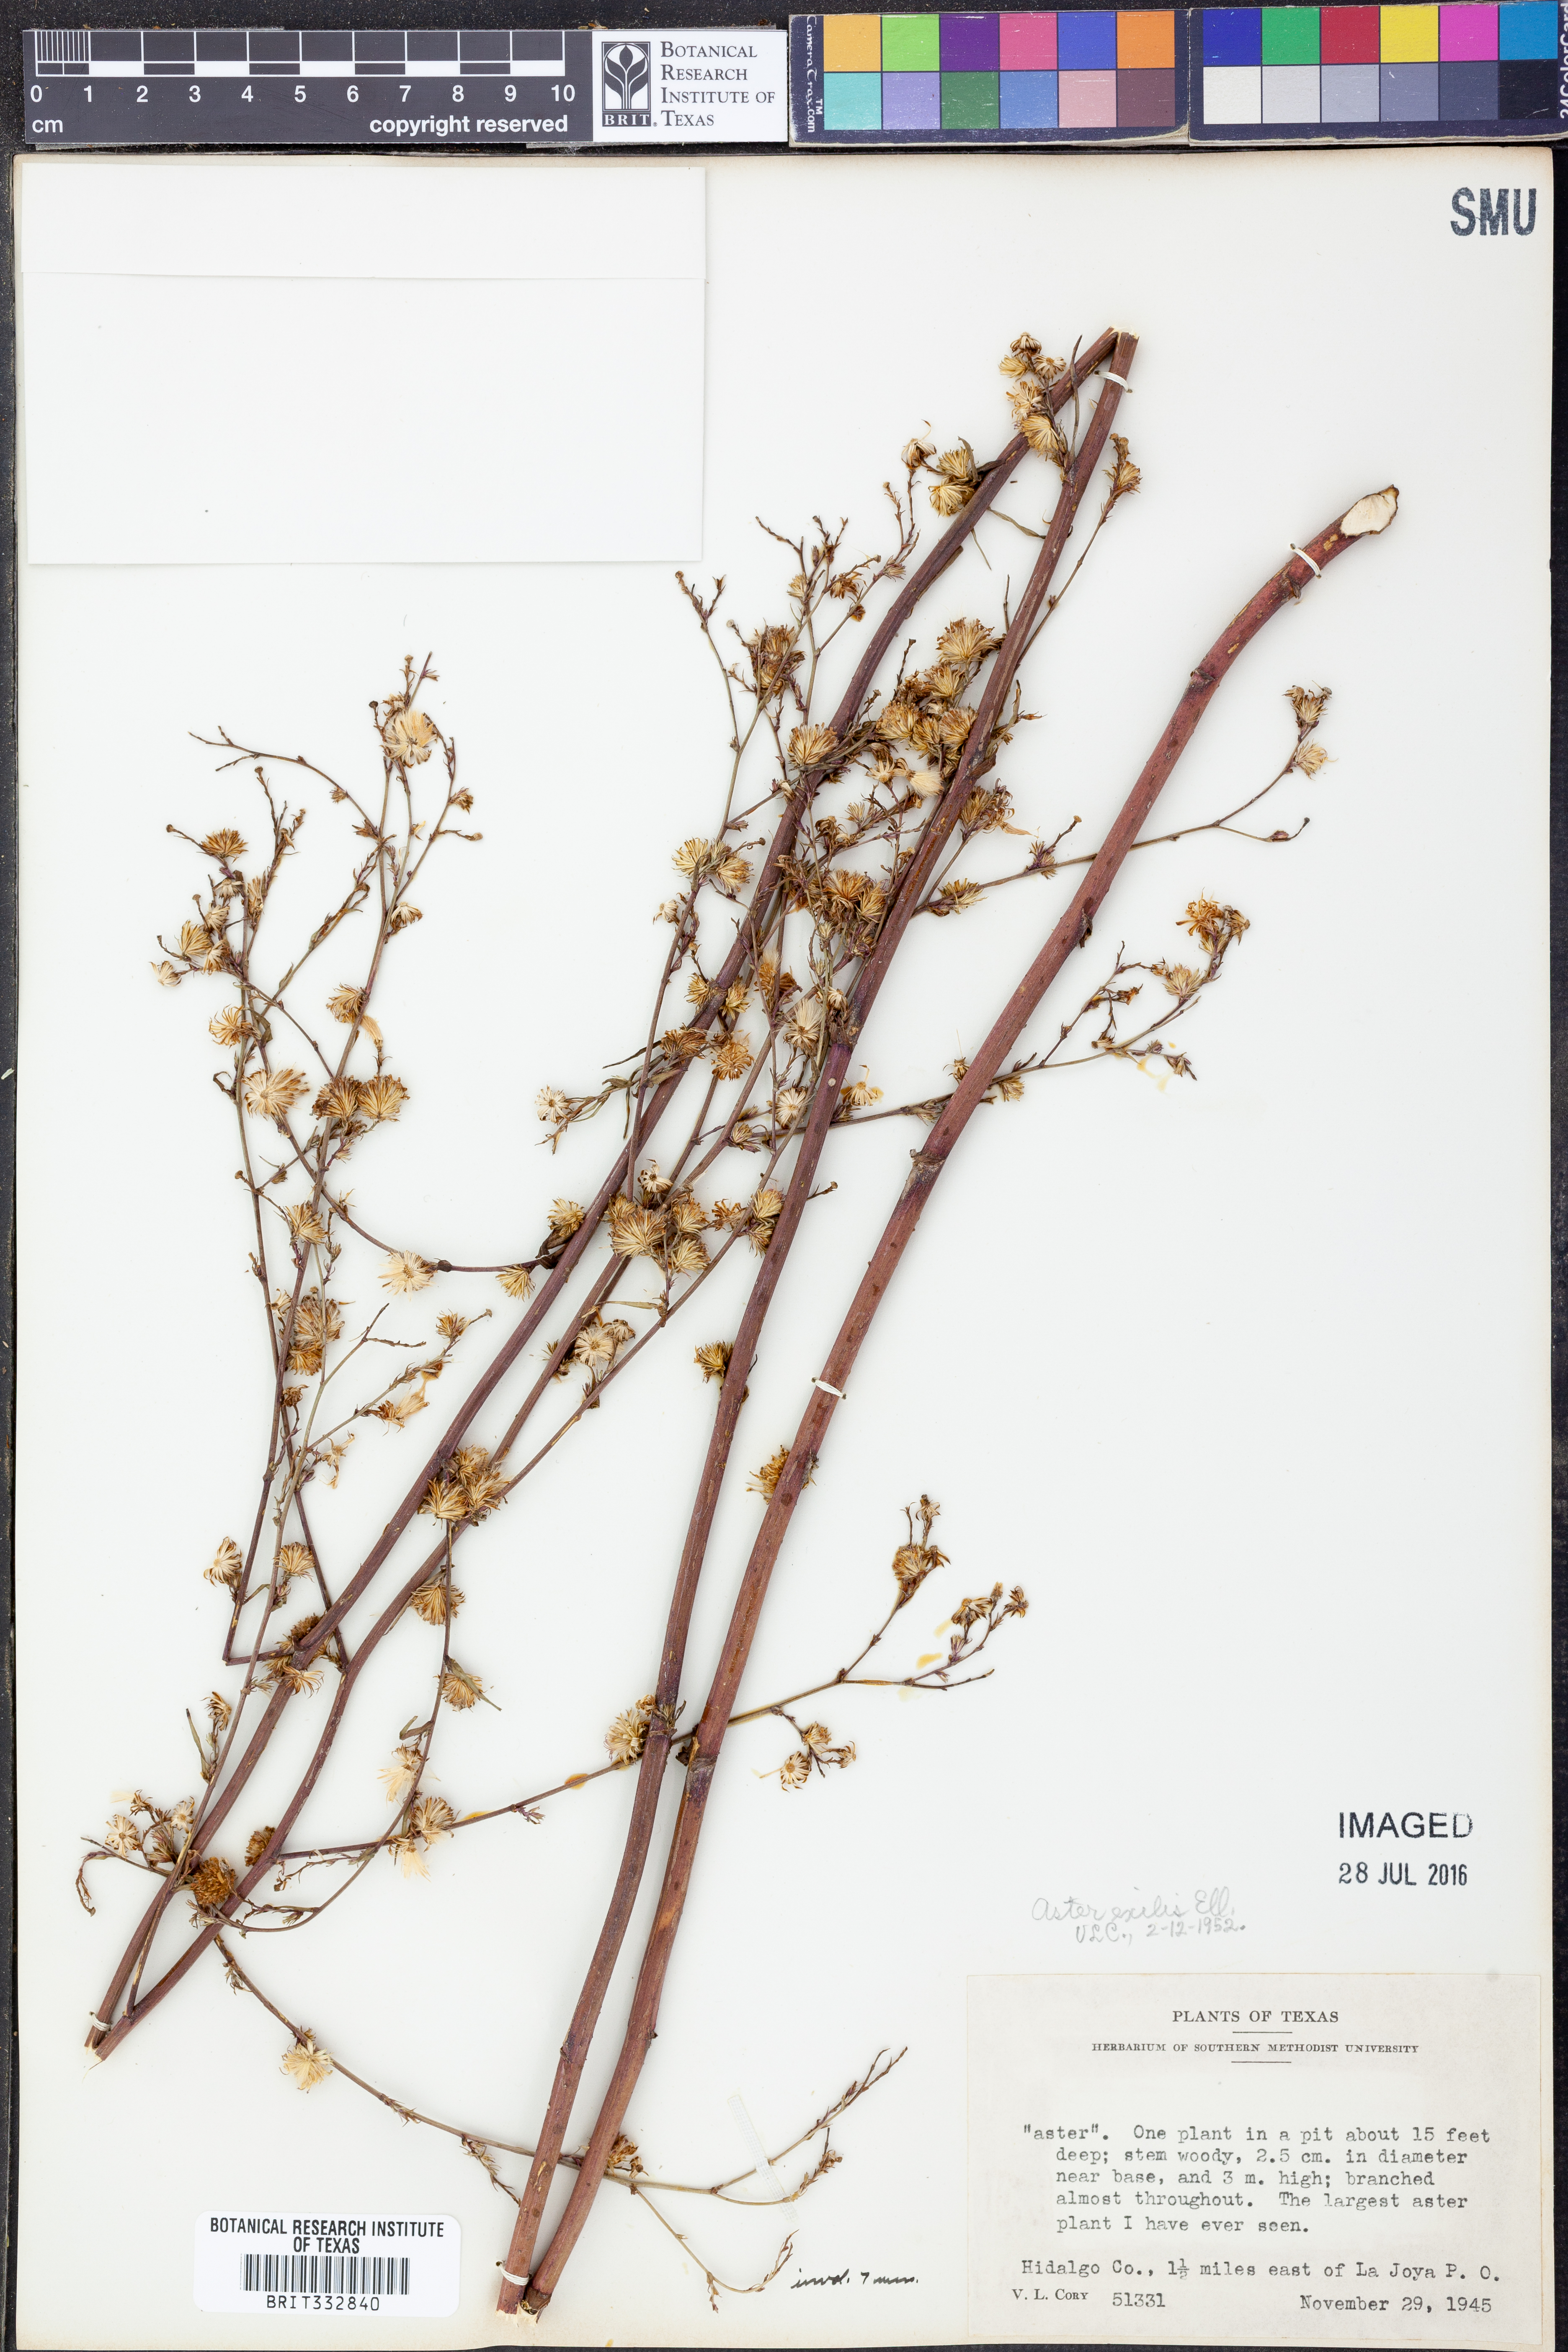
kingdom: Plantae
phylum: Tracheophyta
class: Magnoliopsida
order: Asterales
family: Asteraceae
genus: Symphyotrichum
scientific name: Symphyotrichum expansum
